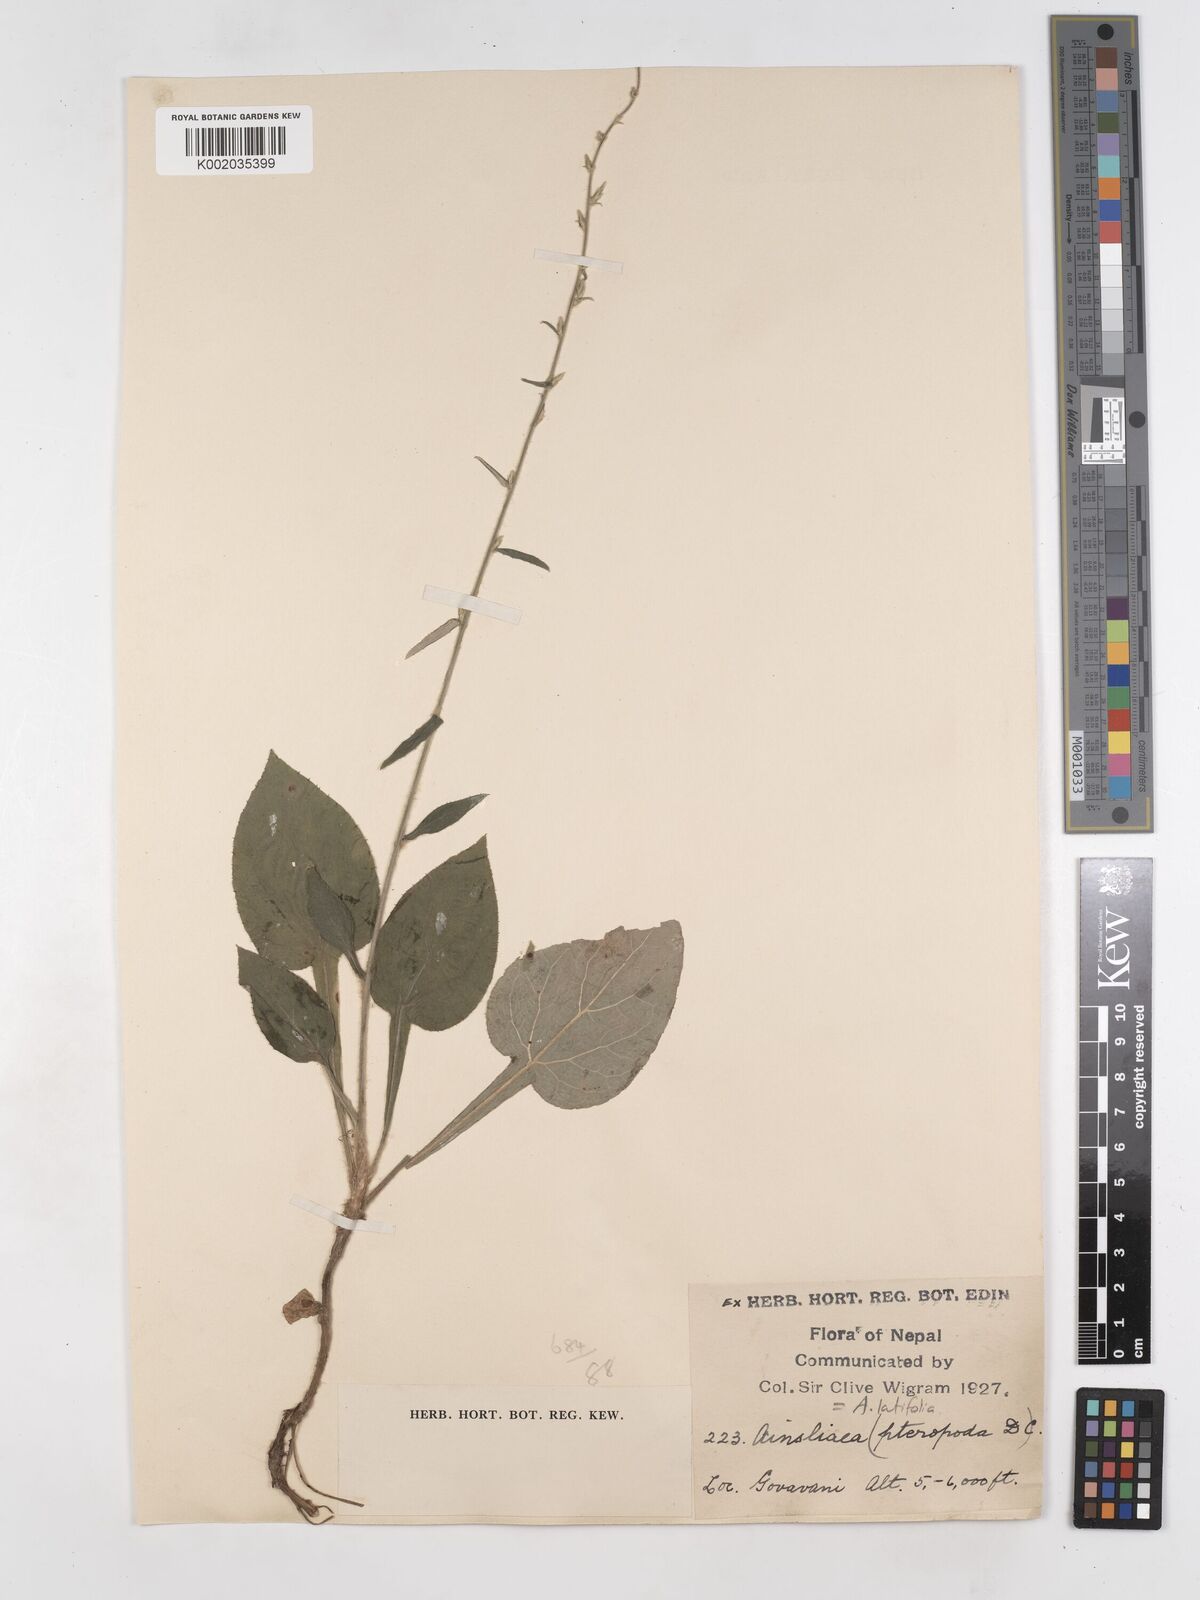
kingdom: Plantae
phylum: Tracheophyta
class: Magnoliopsida
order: Asterales
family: Asteraceae
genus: Ainsliaea
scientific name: Ainsliaea latifolia
